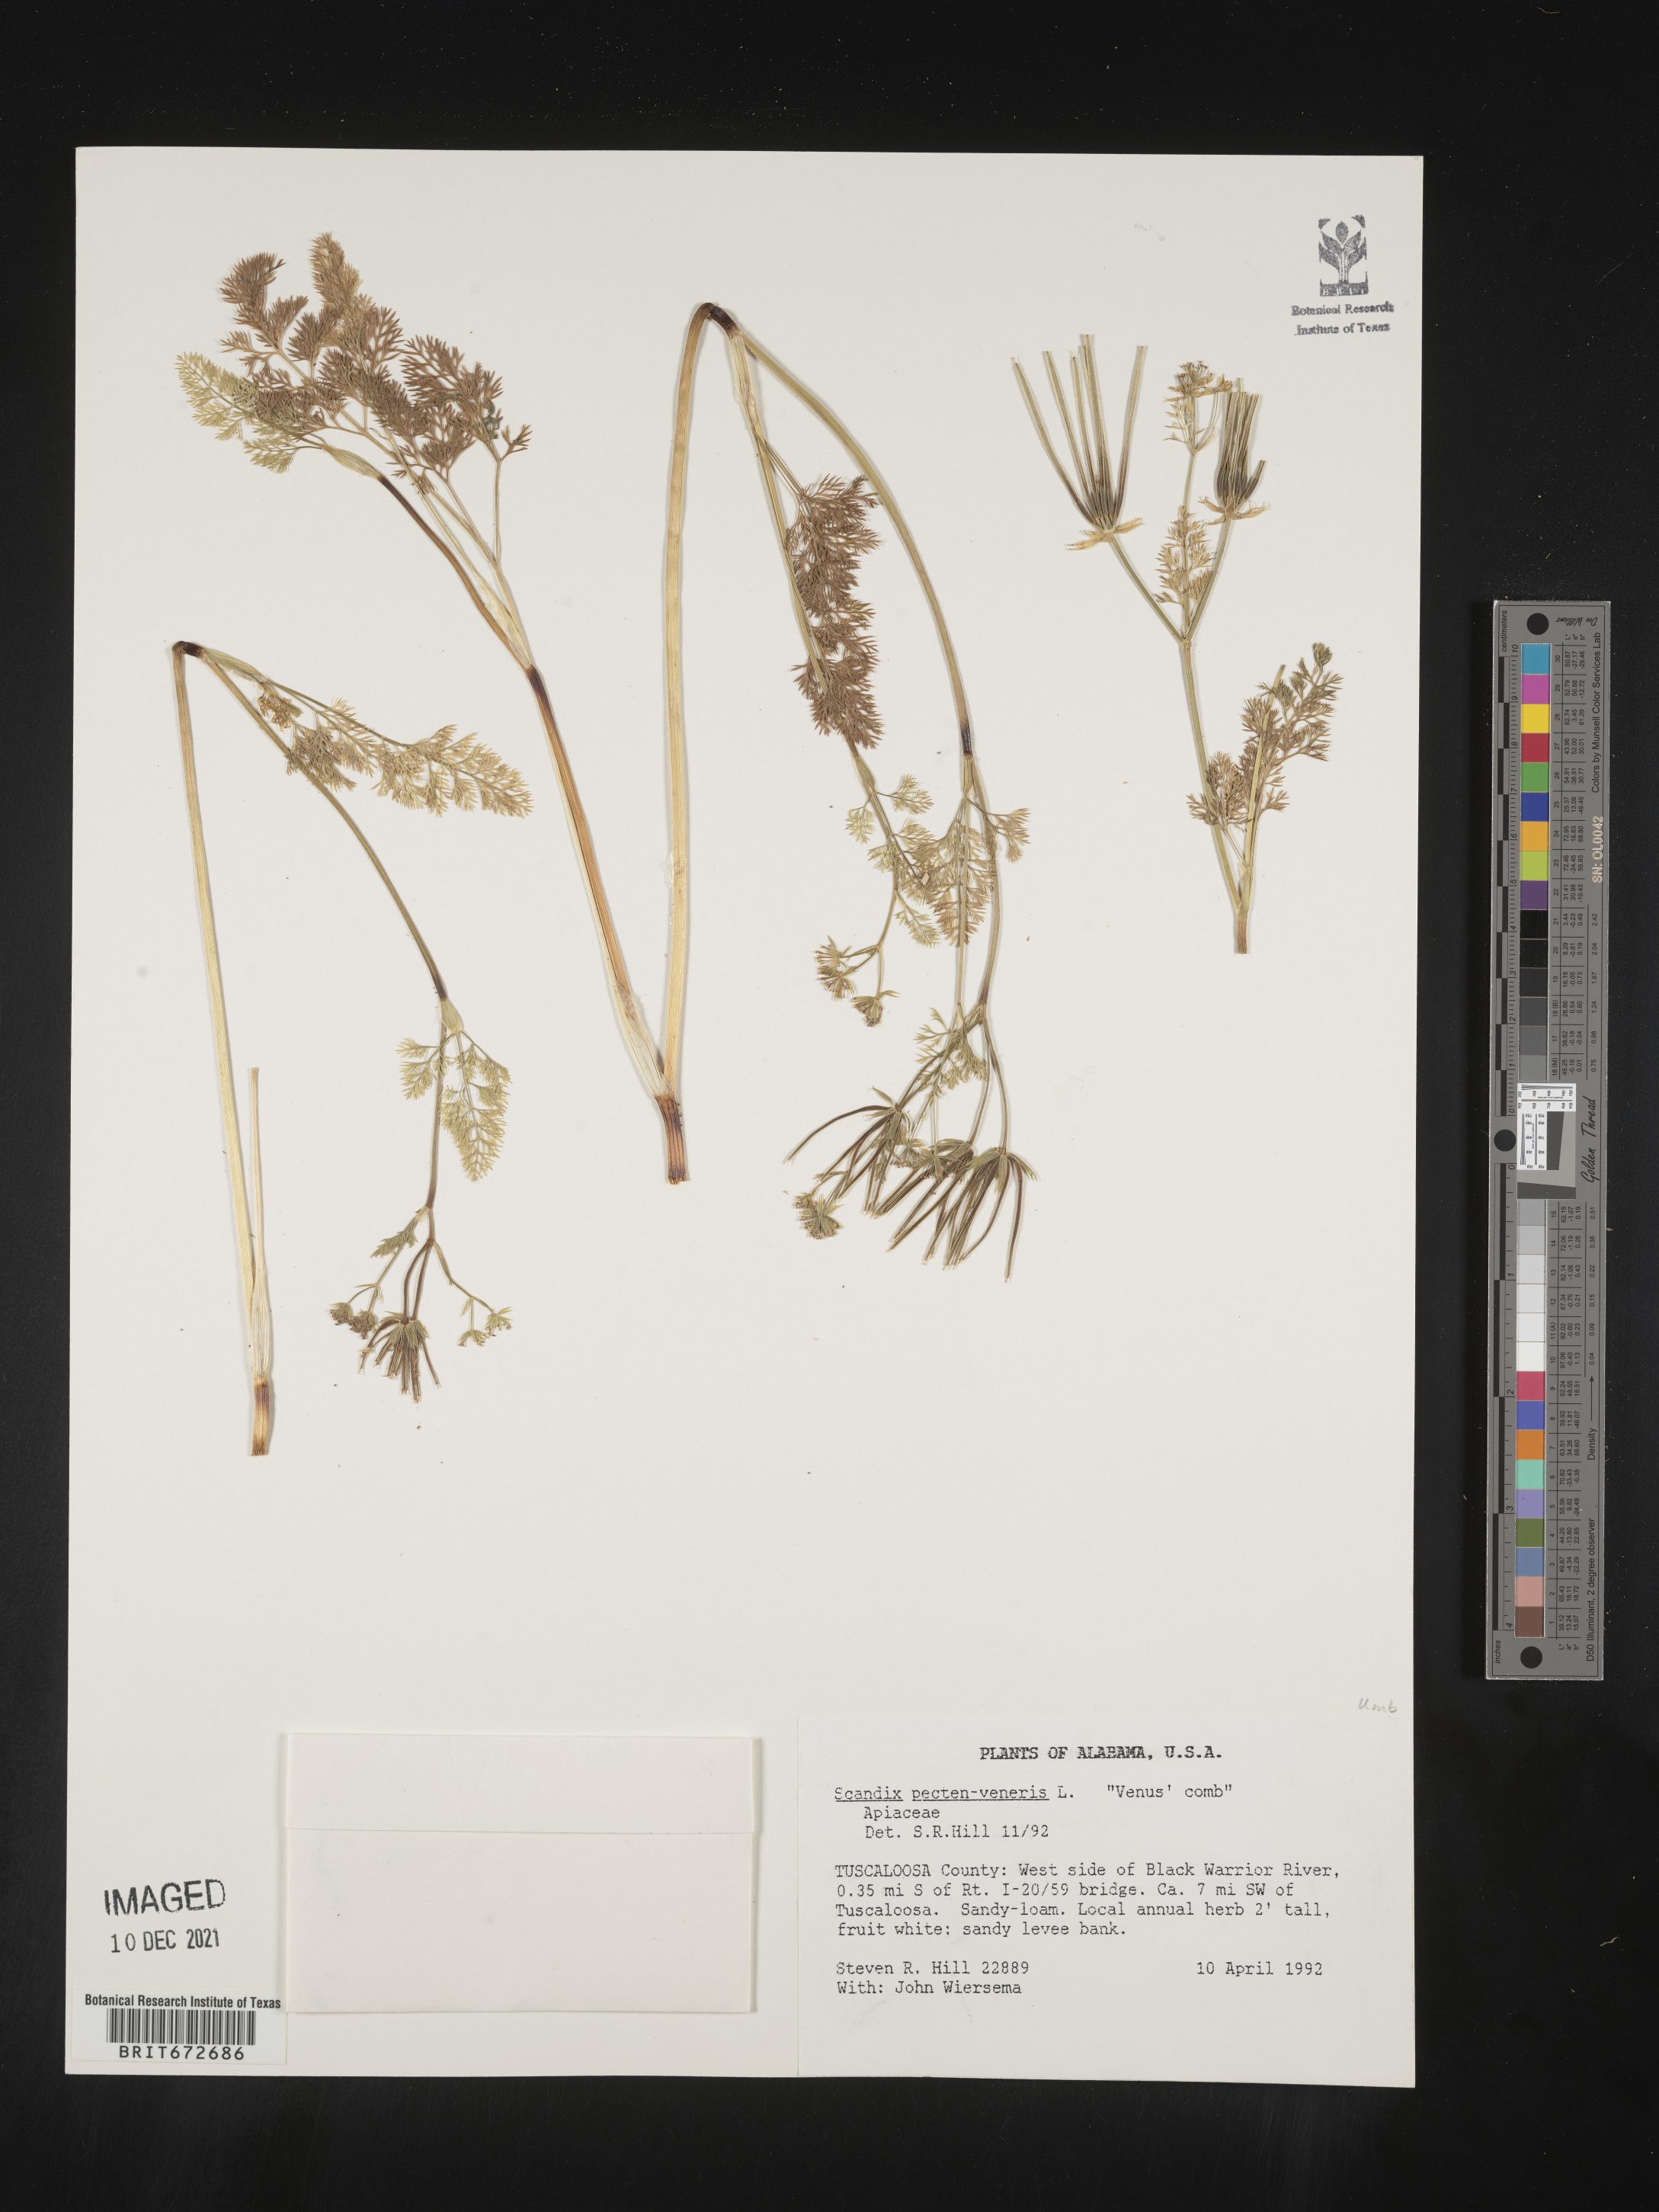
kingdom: Plantae
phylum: Tracheophyta
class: Magnoliopsida
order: Apiales
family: Apiaceae
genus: Scandix
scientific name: Scandix
